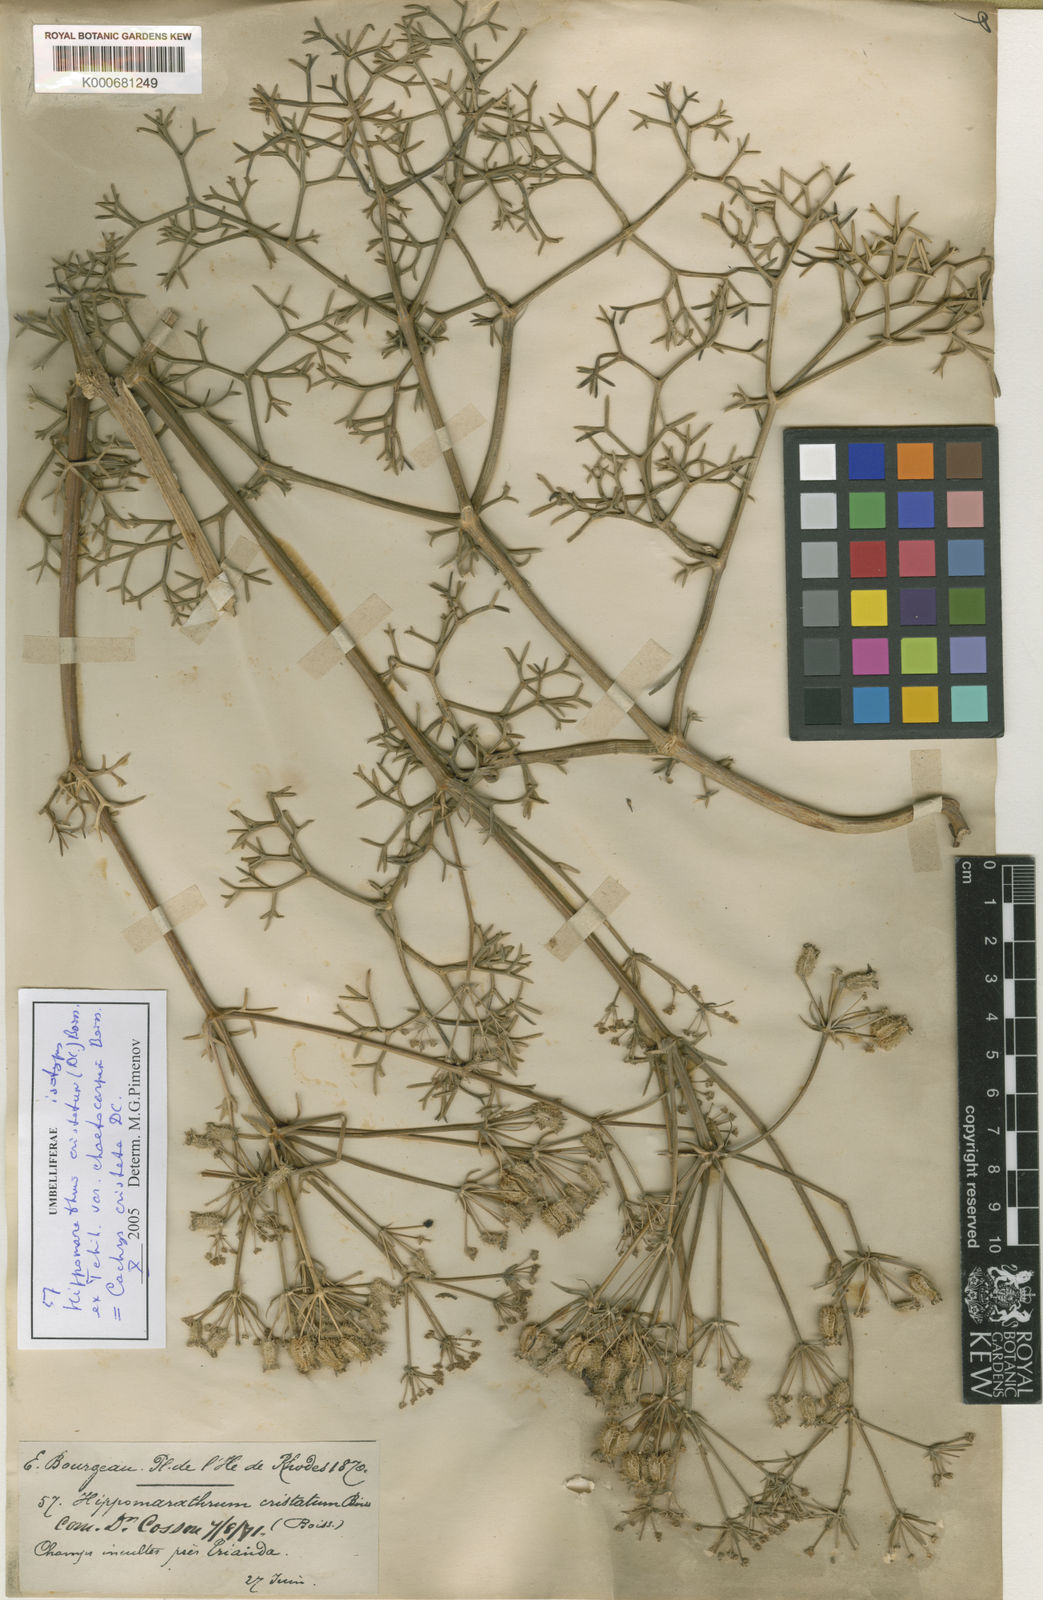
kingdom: Plantae
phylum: Tracheophyta
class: Magnoliopsida
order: Apiales
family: Apiaceae
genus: Hippomarathrum
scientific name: Hippomarathrum
